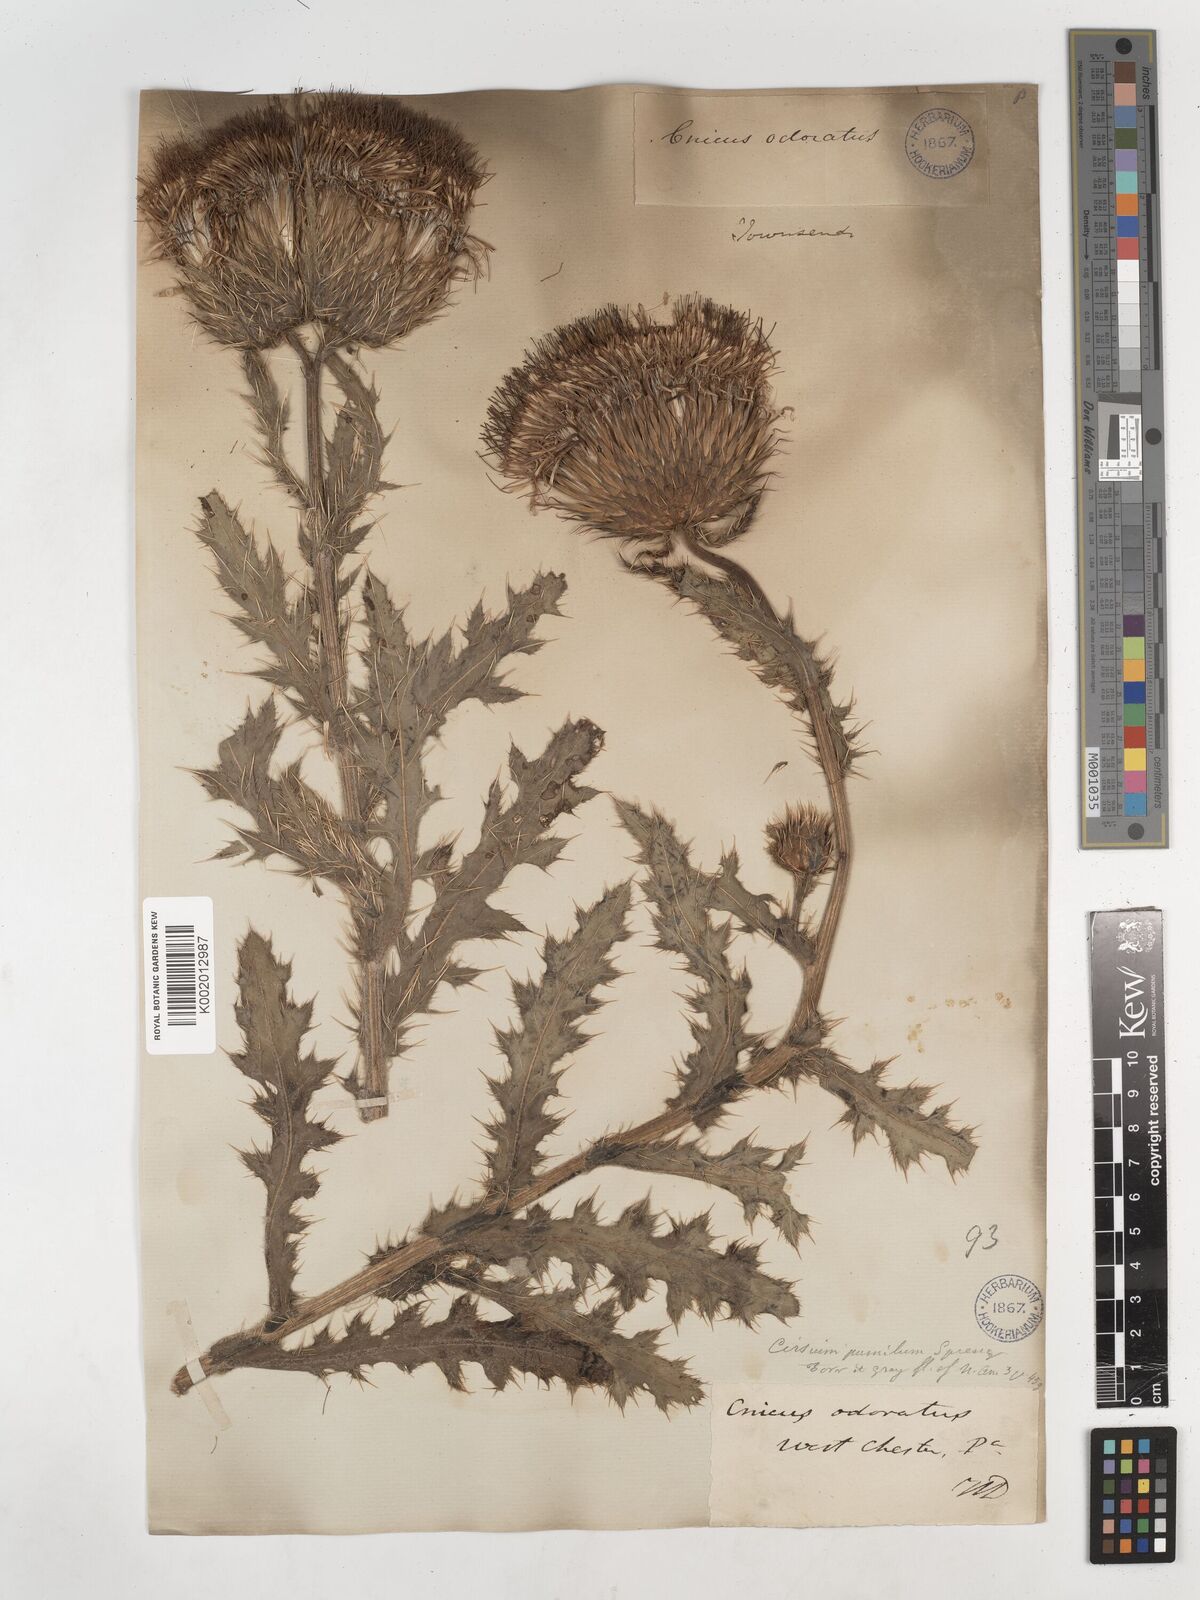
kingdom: Plantae
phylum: Tracheophyta
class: Magnoliopsida
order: Asterales
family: Asteraceae
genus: Cirsium
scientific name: Cirsium pumilum
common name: Pasture thistle
